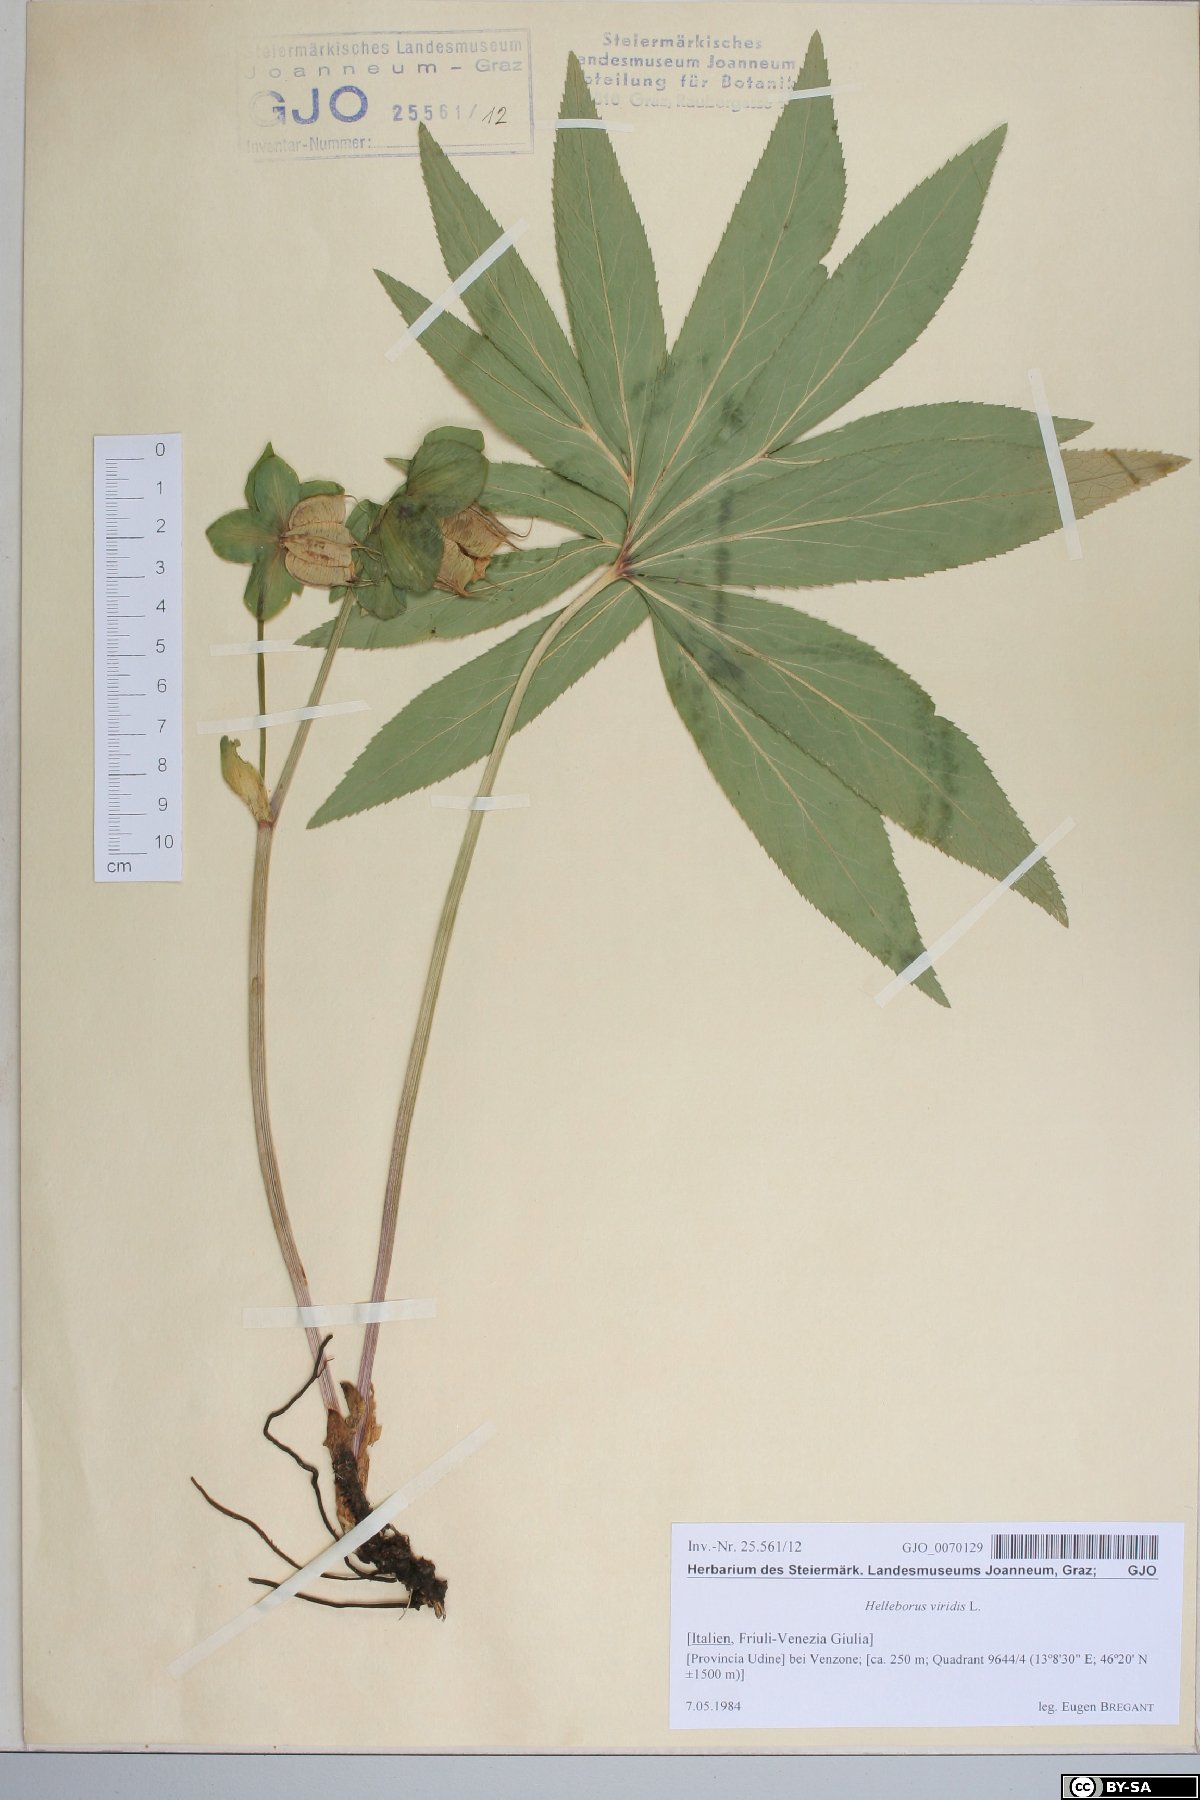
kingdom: Plantae
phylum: Tracheophyta
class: Magnoliopsida
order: Ranunculales
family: Ranunculaceae
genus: Helleborus
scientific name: Helleborus viridis
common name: Green hellebore
